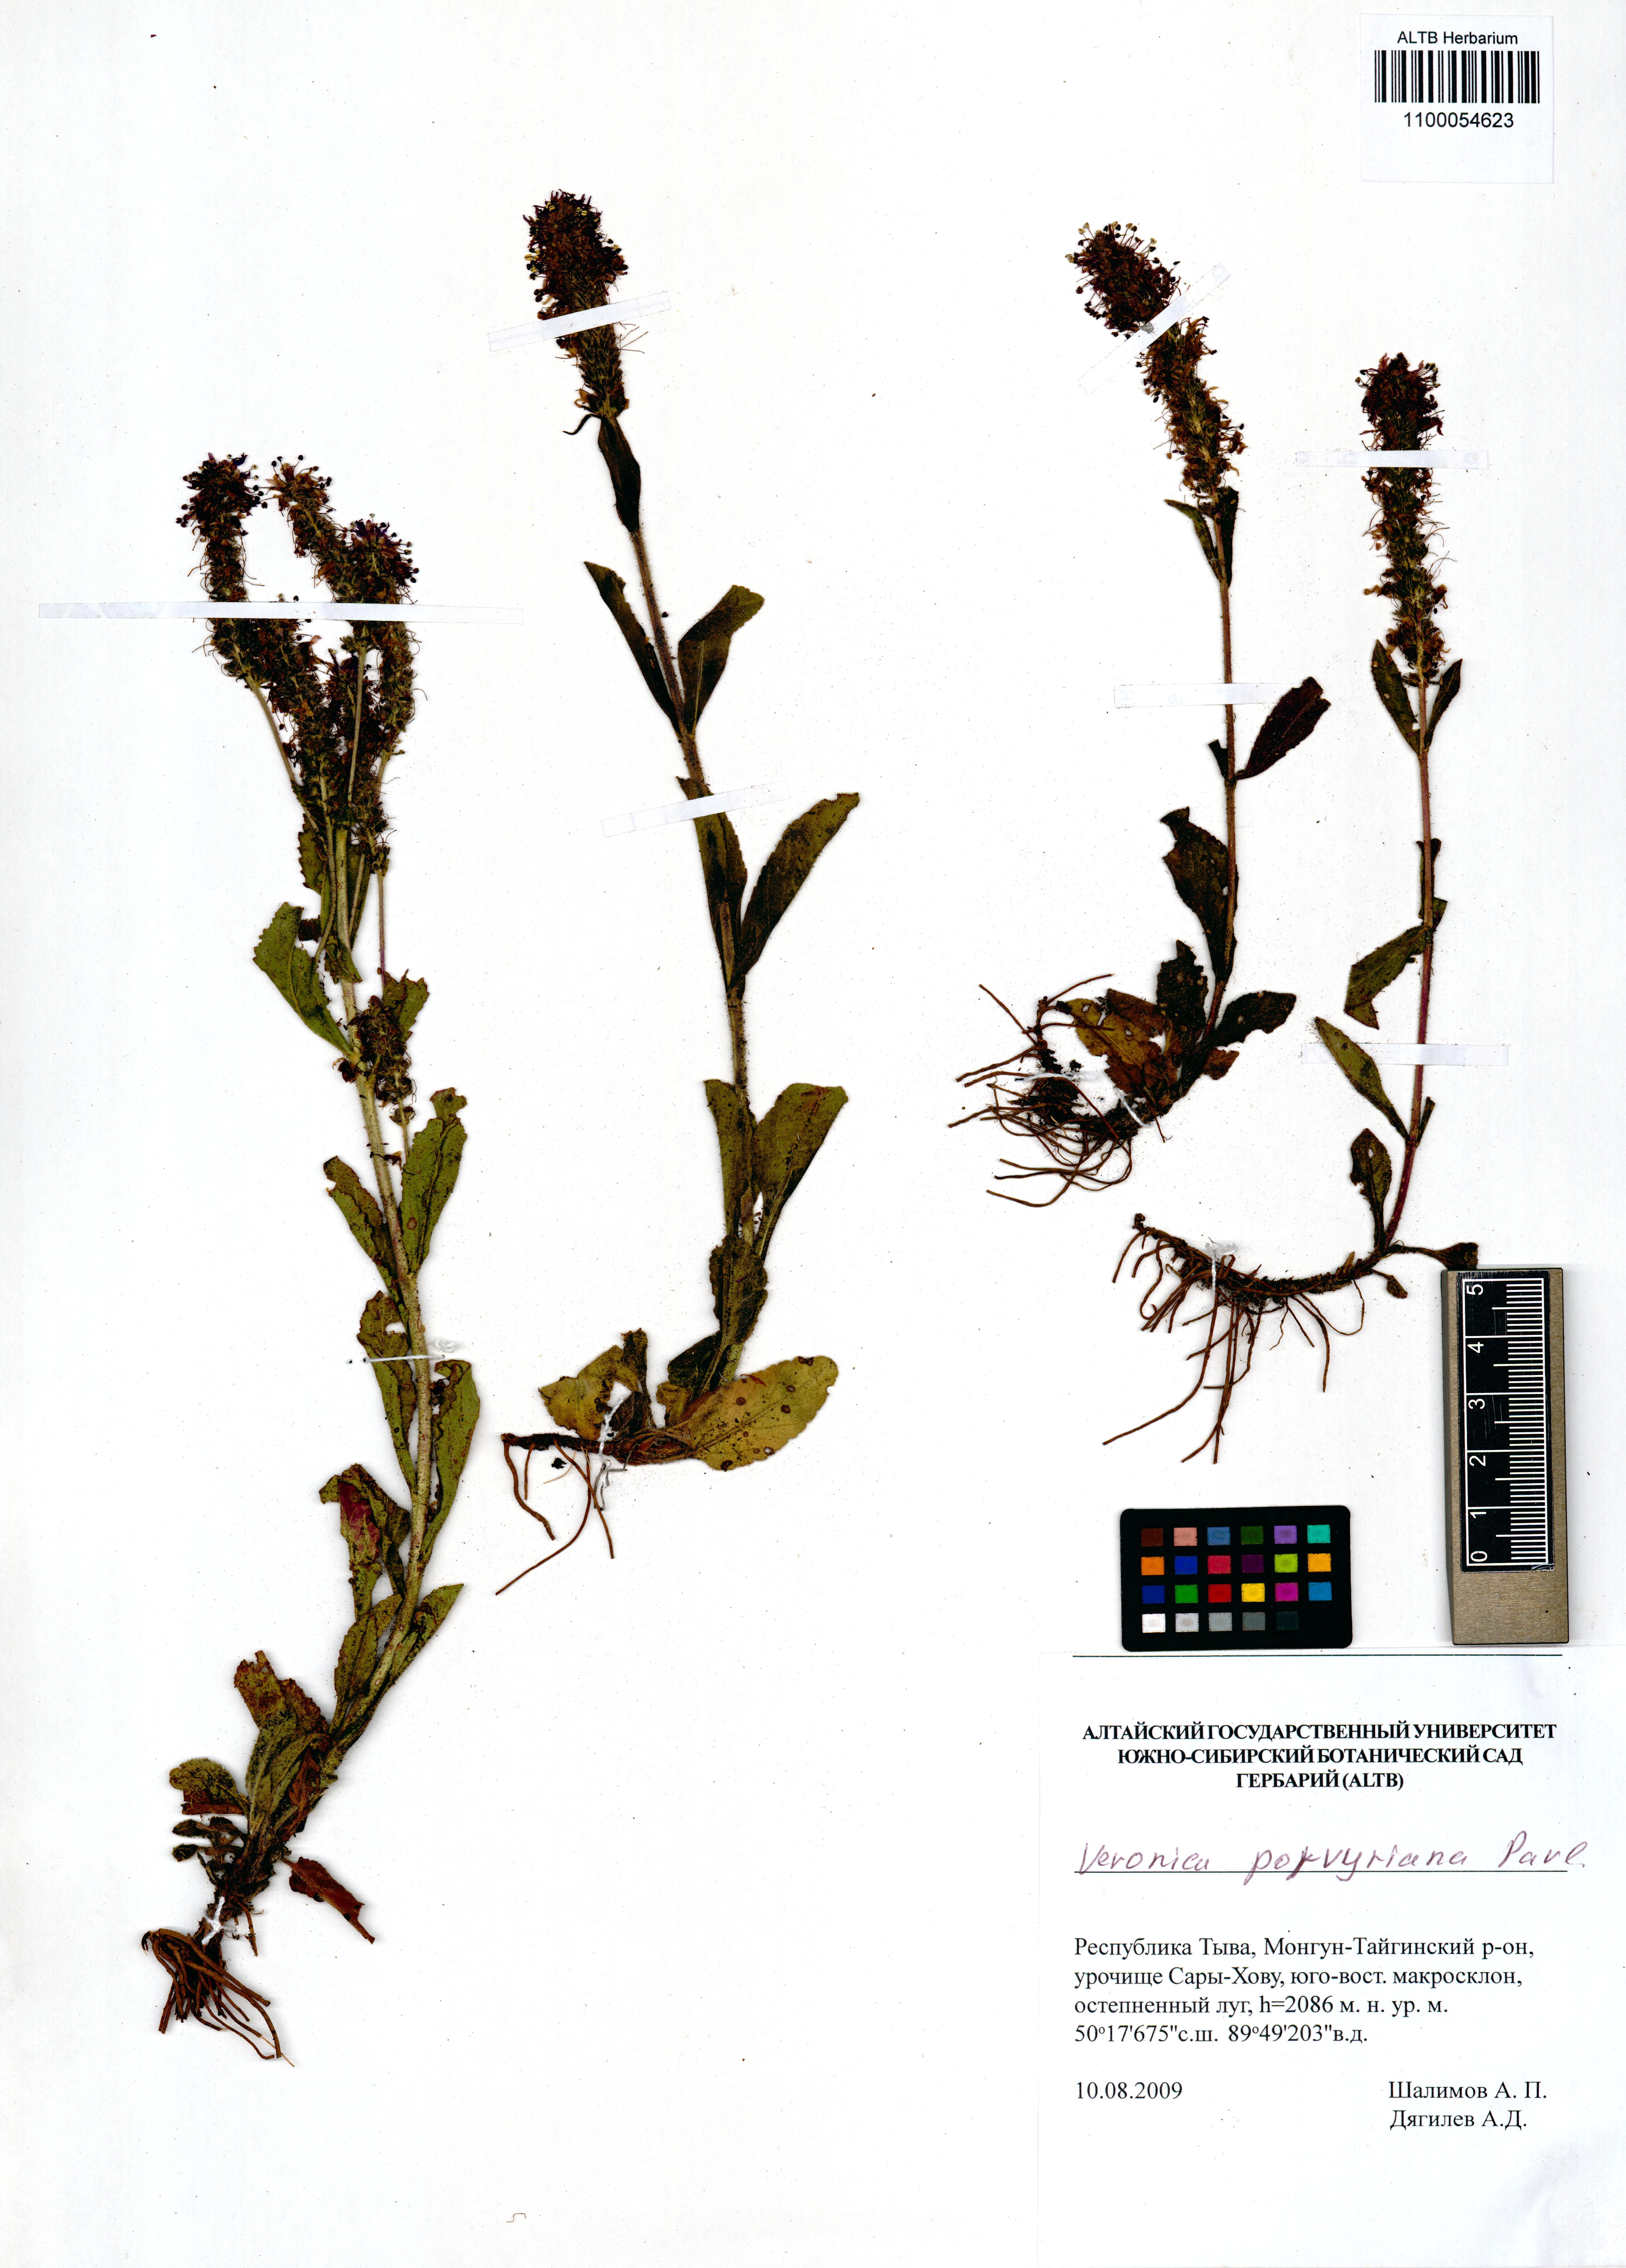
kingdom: Plantae
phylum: Tracheophyta
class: Magnoliopsida
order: Lamiales
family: Plantaginaceae
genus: Veronica
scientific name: Veronica porphyriana
